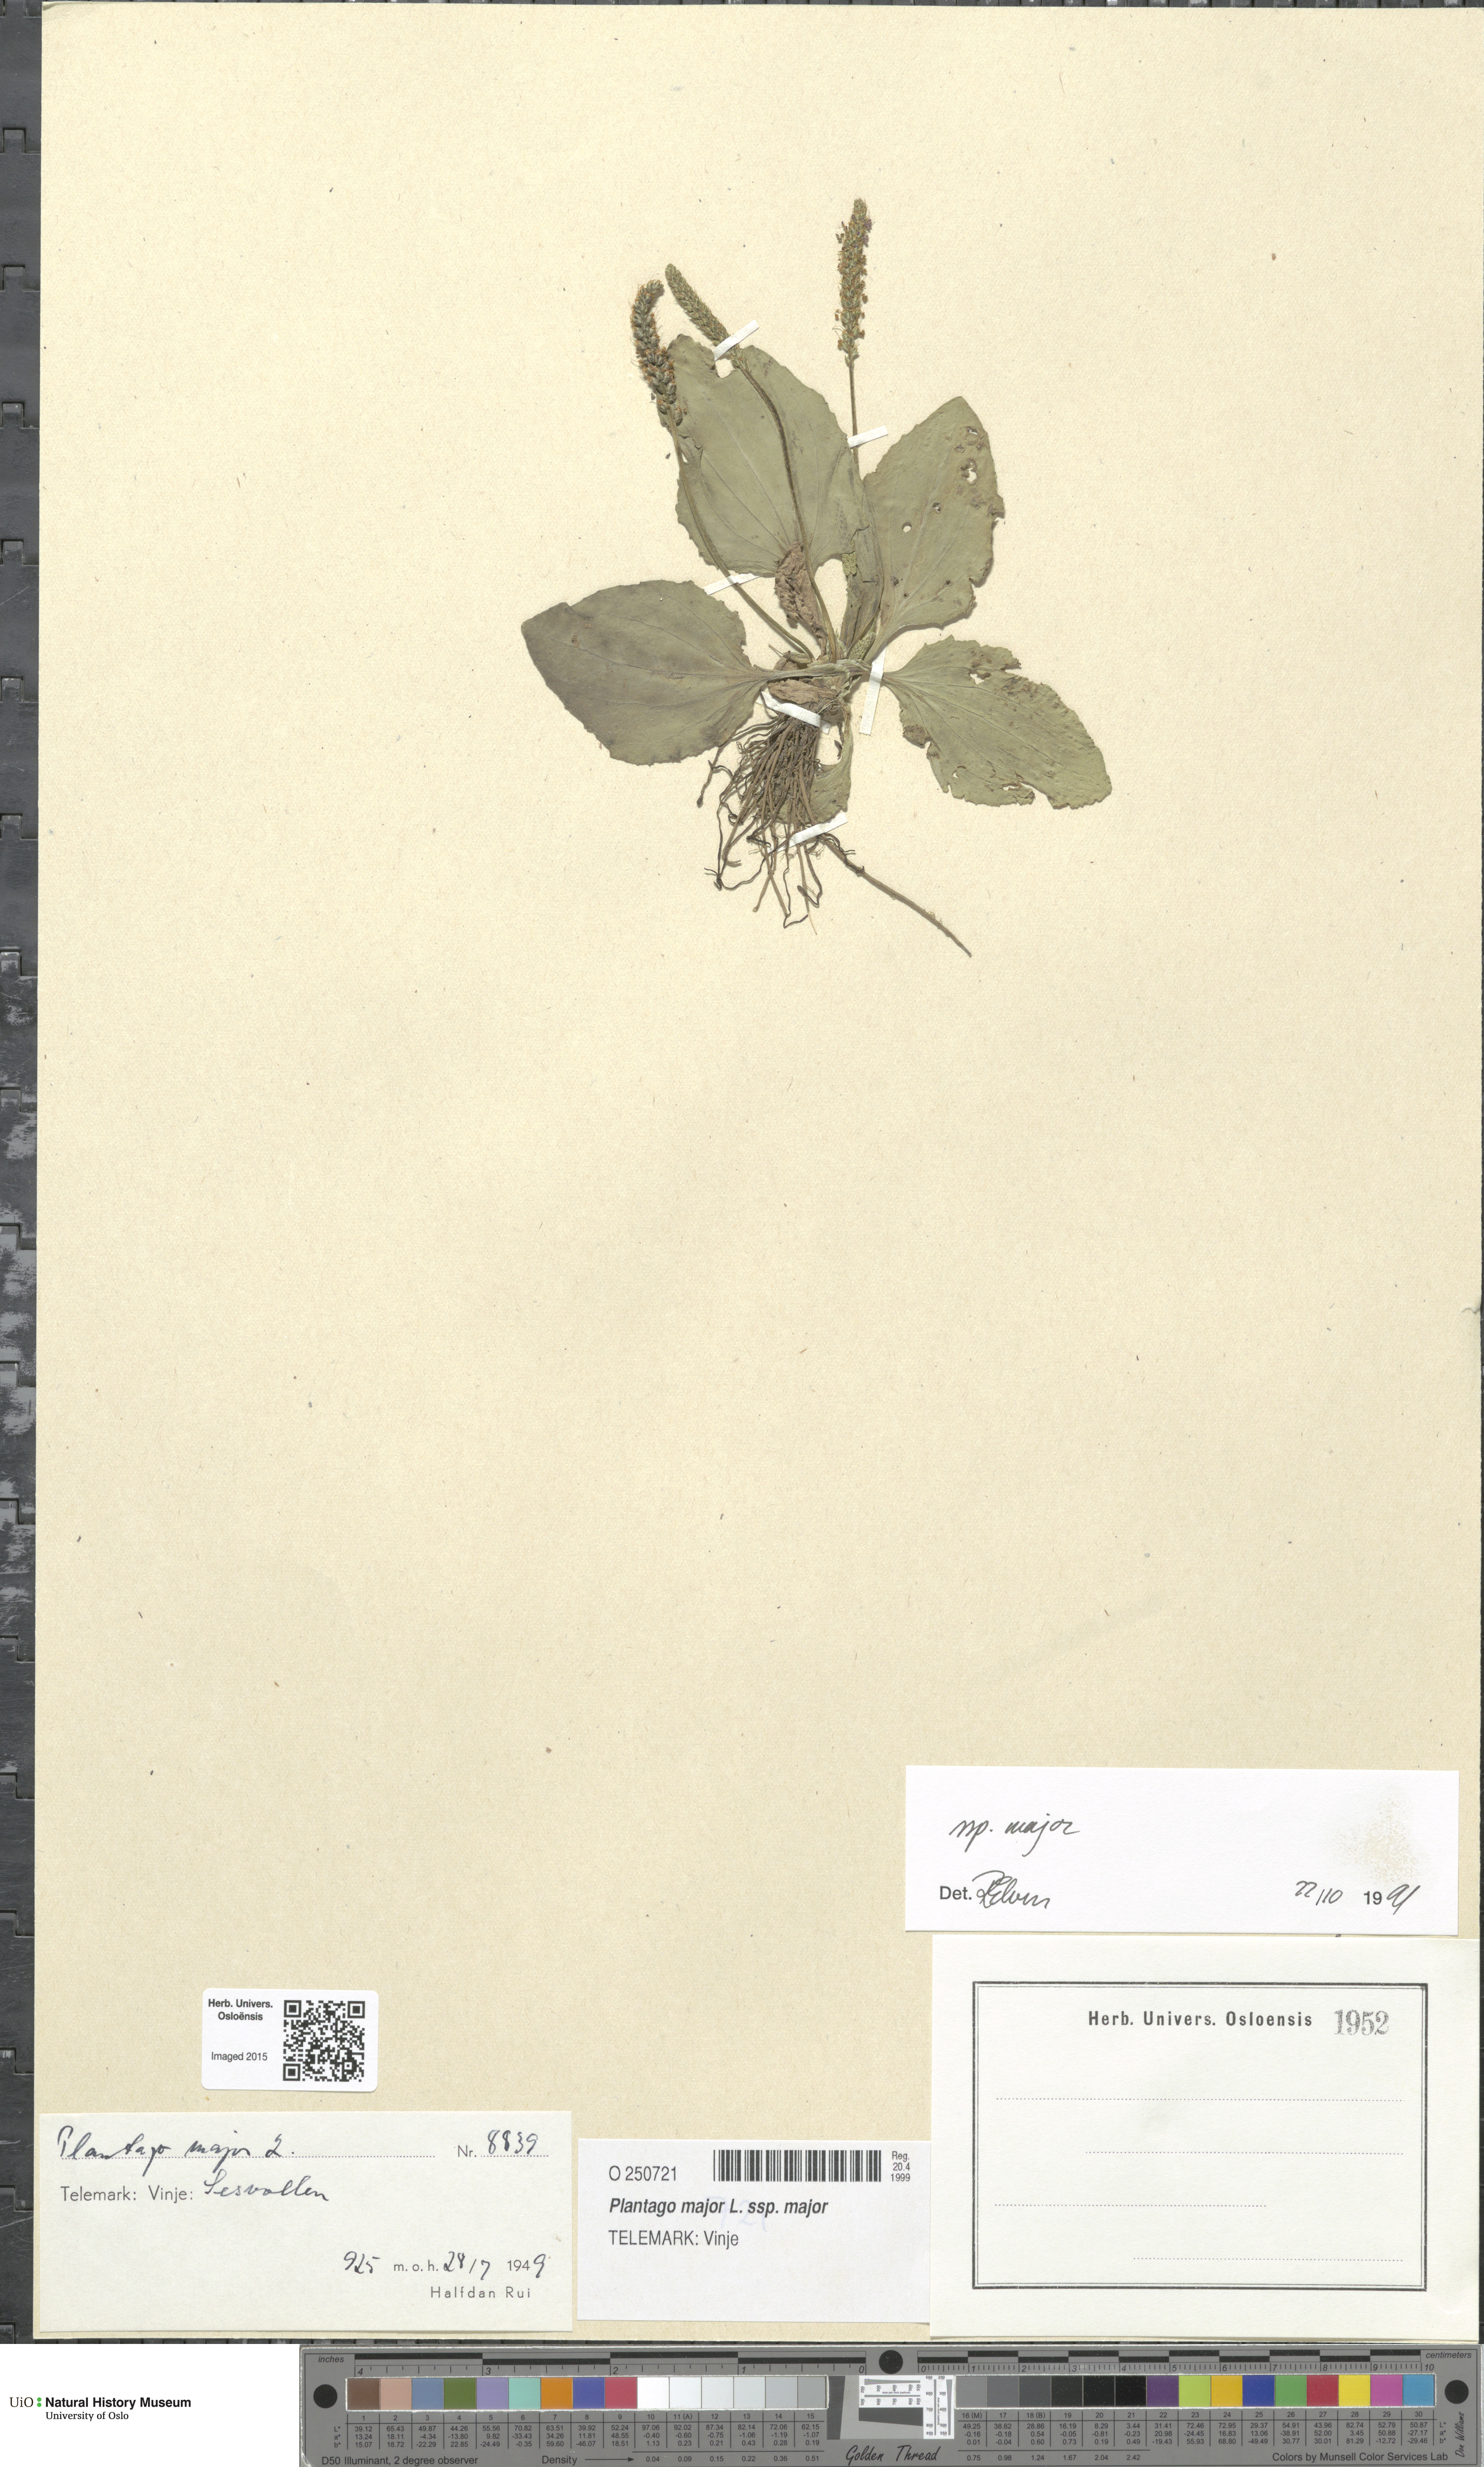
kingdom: Plantae
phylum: Tracheophyta
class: Magnoliopsida
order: Lamiales
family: Plantaginaceae
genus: Plantago
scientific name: Plantago major
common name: Common plantain
